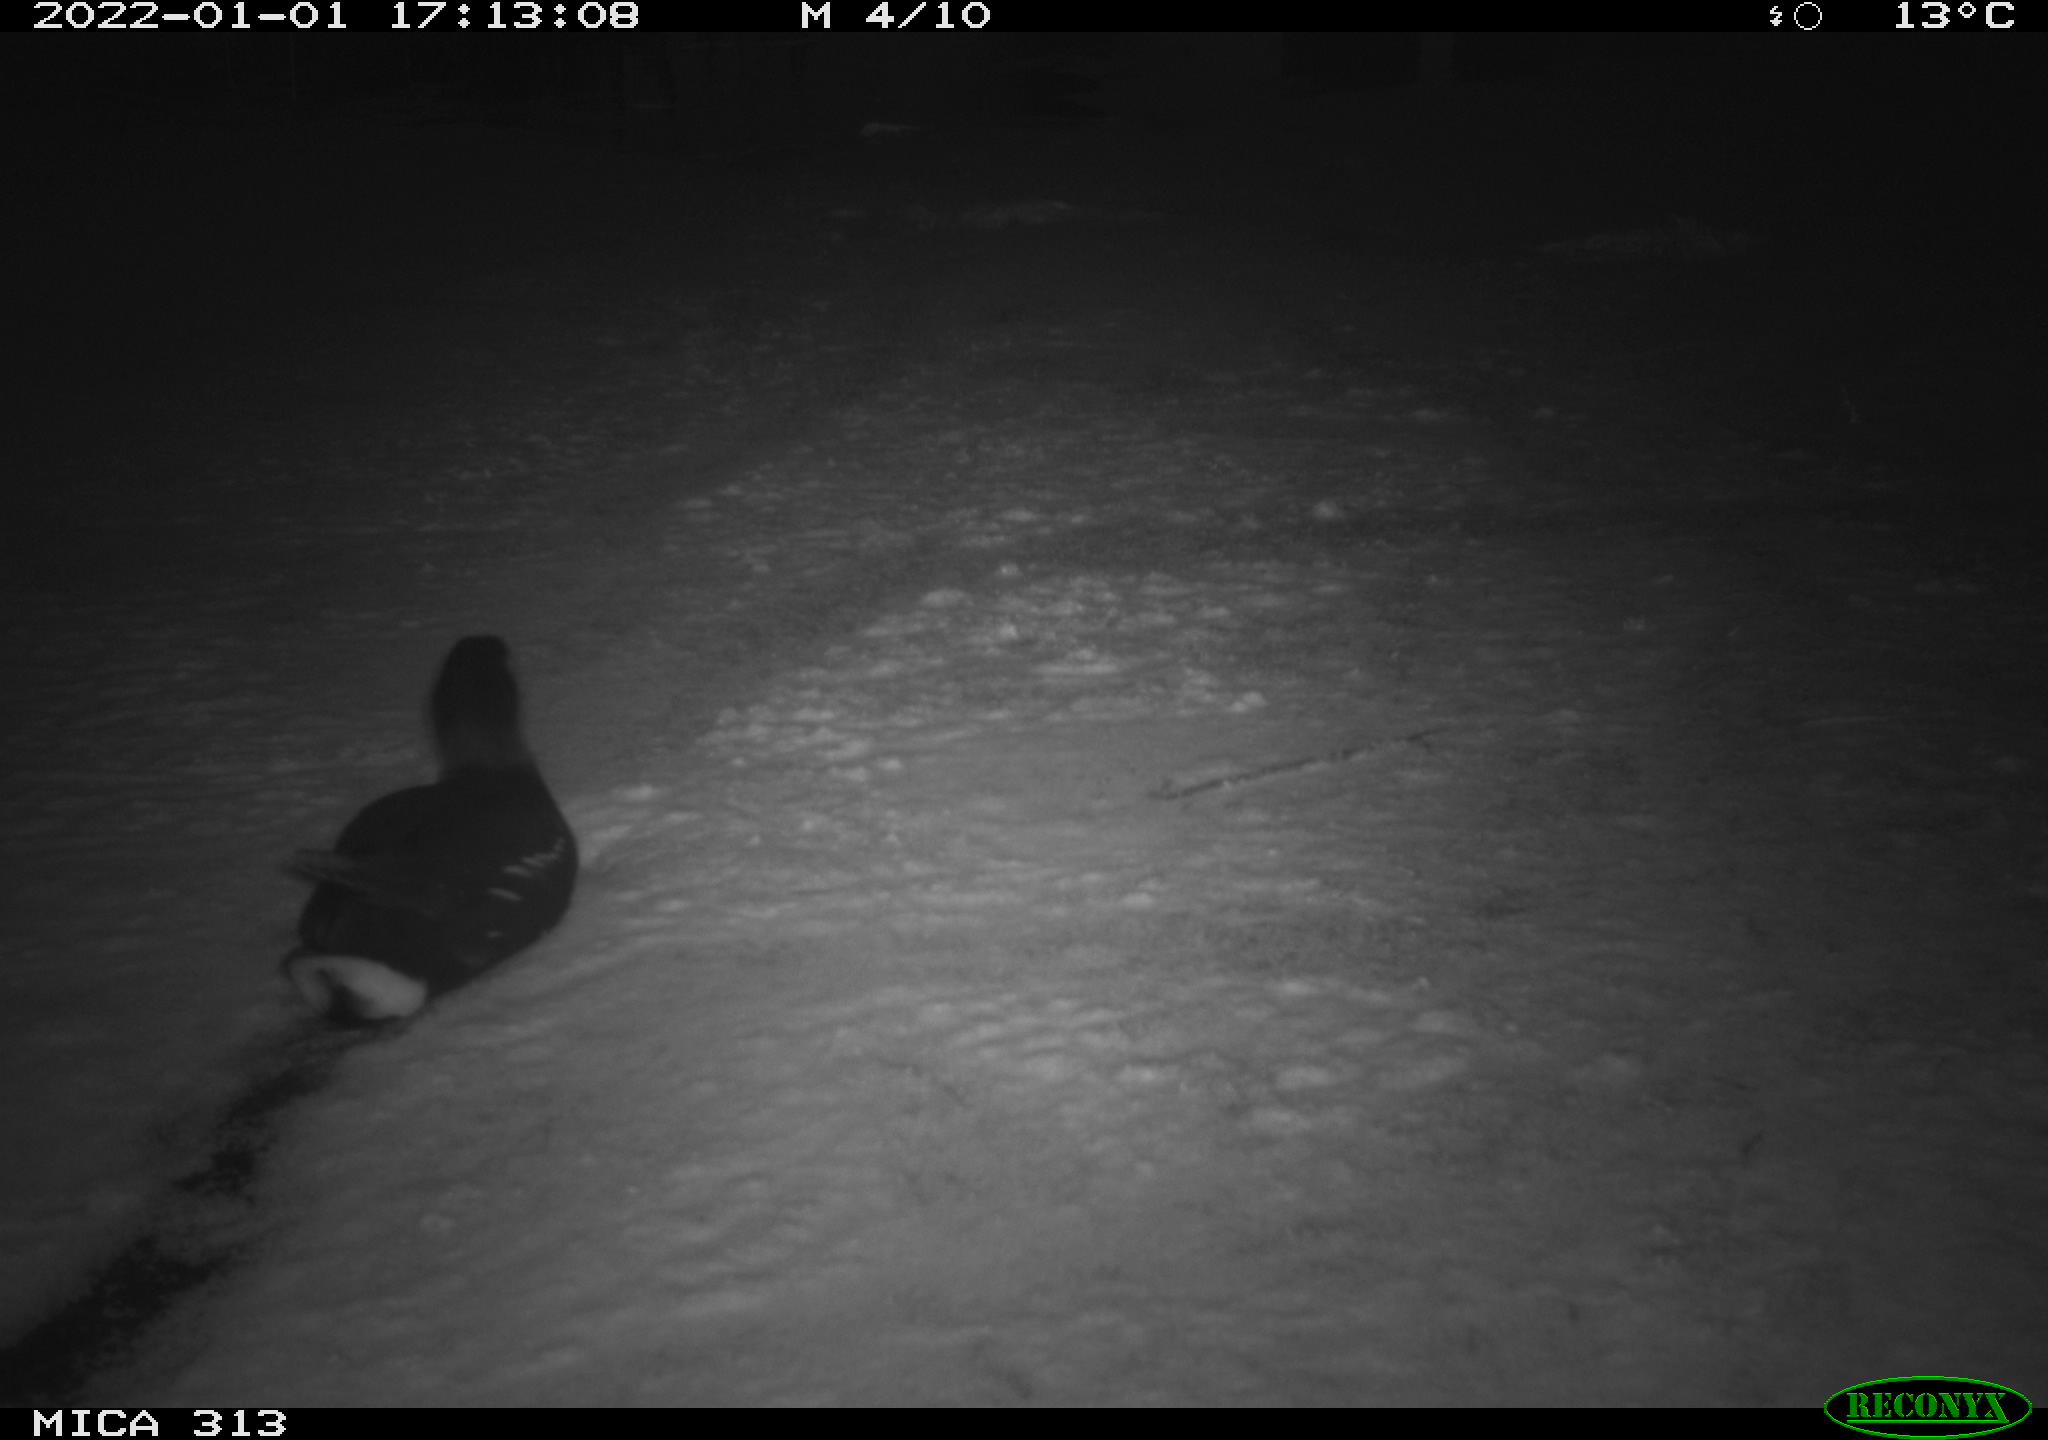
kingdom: Animalia
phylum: Chordata
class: Aves
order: Gruiformes
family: Rallidae
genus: Gallinula
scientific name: Gallinula chloropus
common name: Common moorhen
